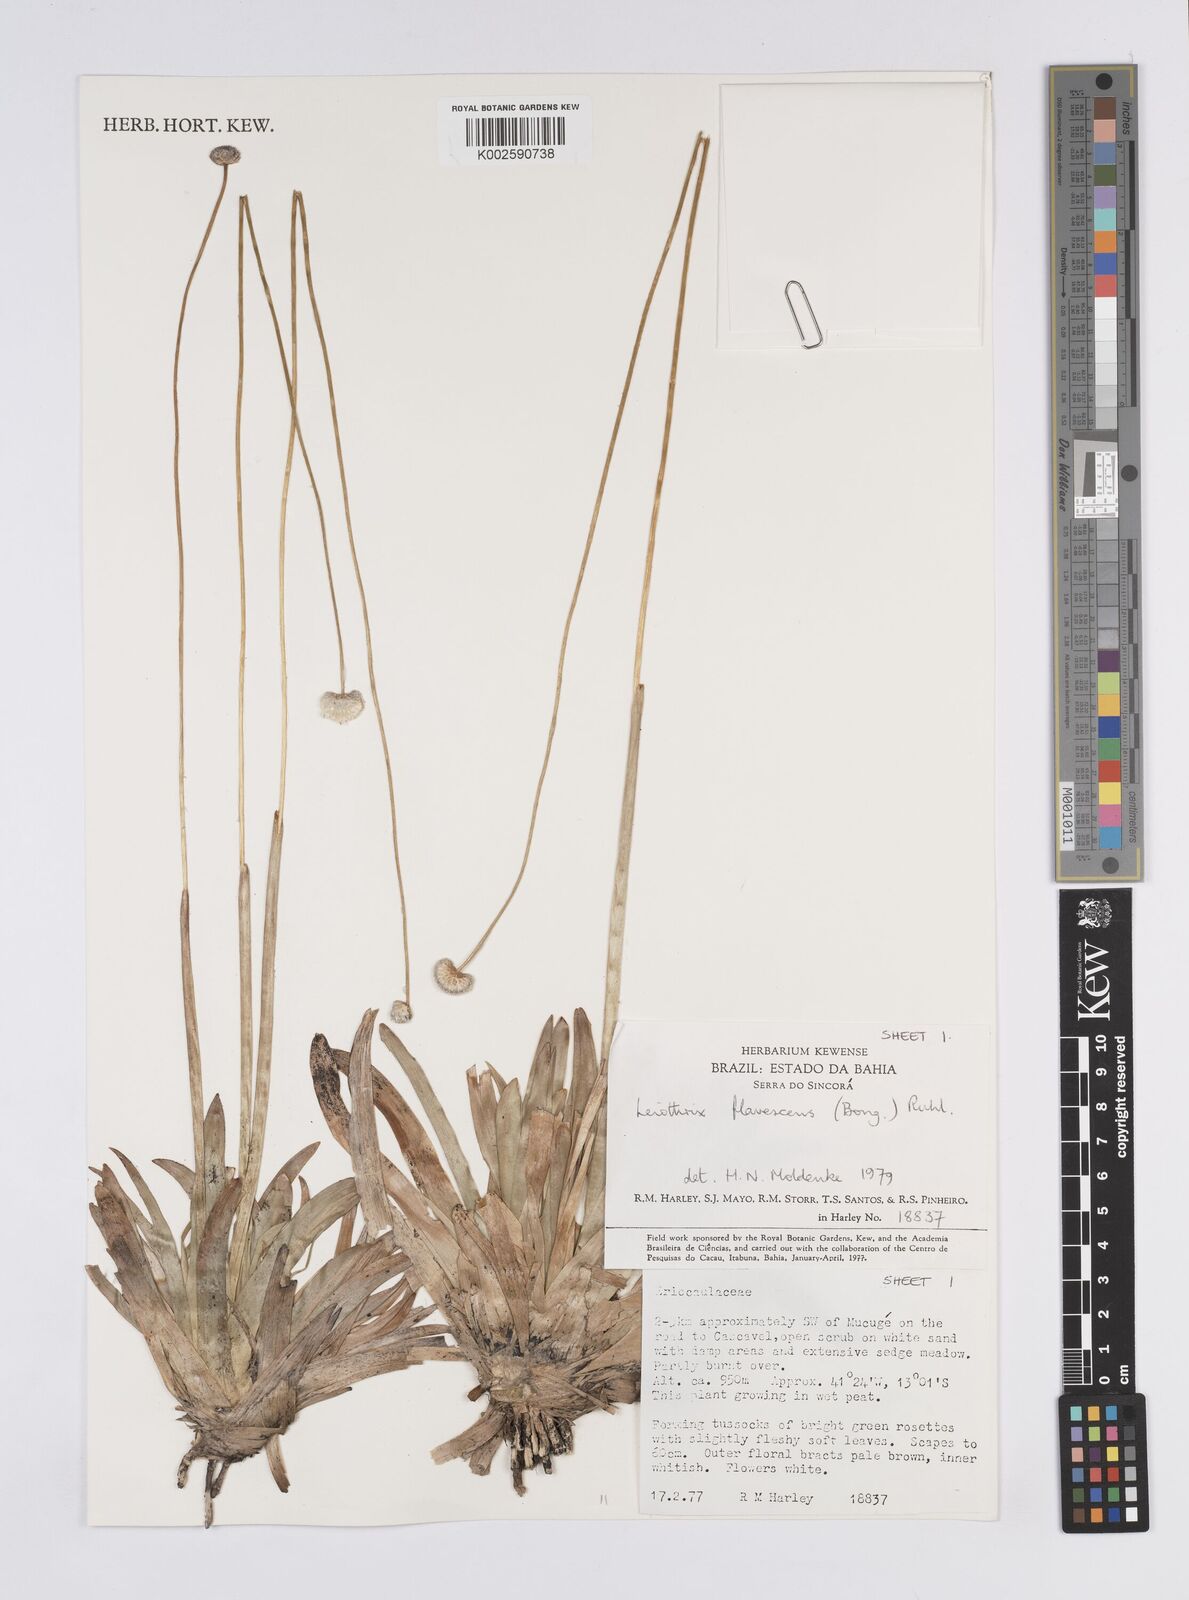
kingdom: Plantae
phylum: Tracheophyta
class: Liliopsida
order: Poales
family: Eriocaulaceae
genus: Leiothrix
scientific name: Leiothrix flavescens
